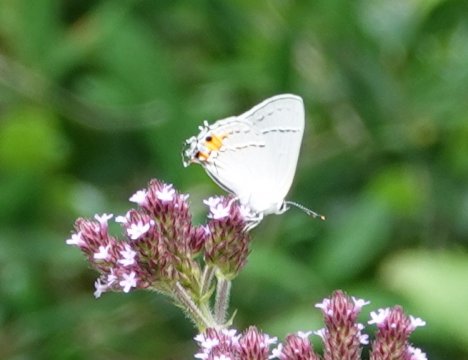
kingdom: Animalia
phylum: Arthropoda
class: Insecta
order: Lepidoptera
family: Lycaenidae
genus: Strymon
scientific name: Strymon melinus
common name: Gray Hairstreak
